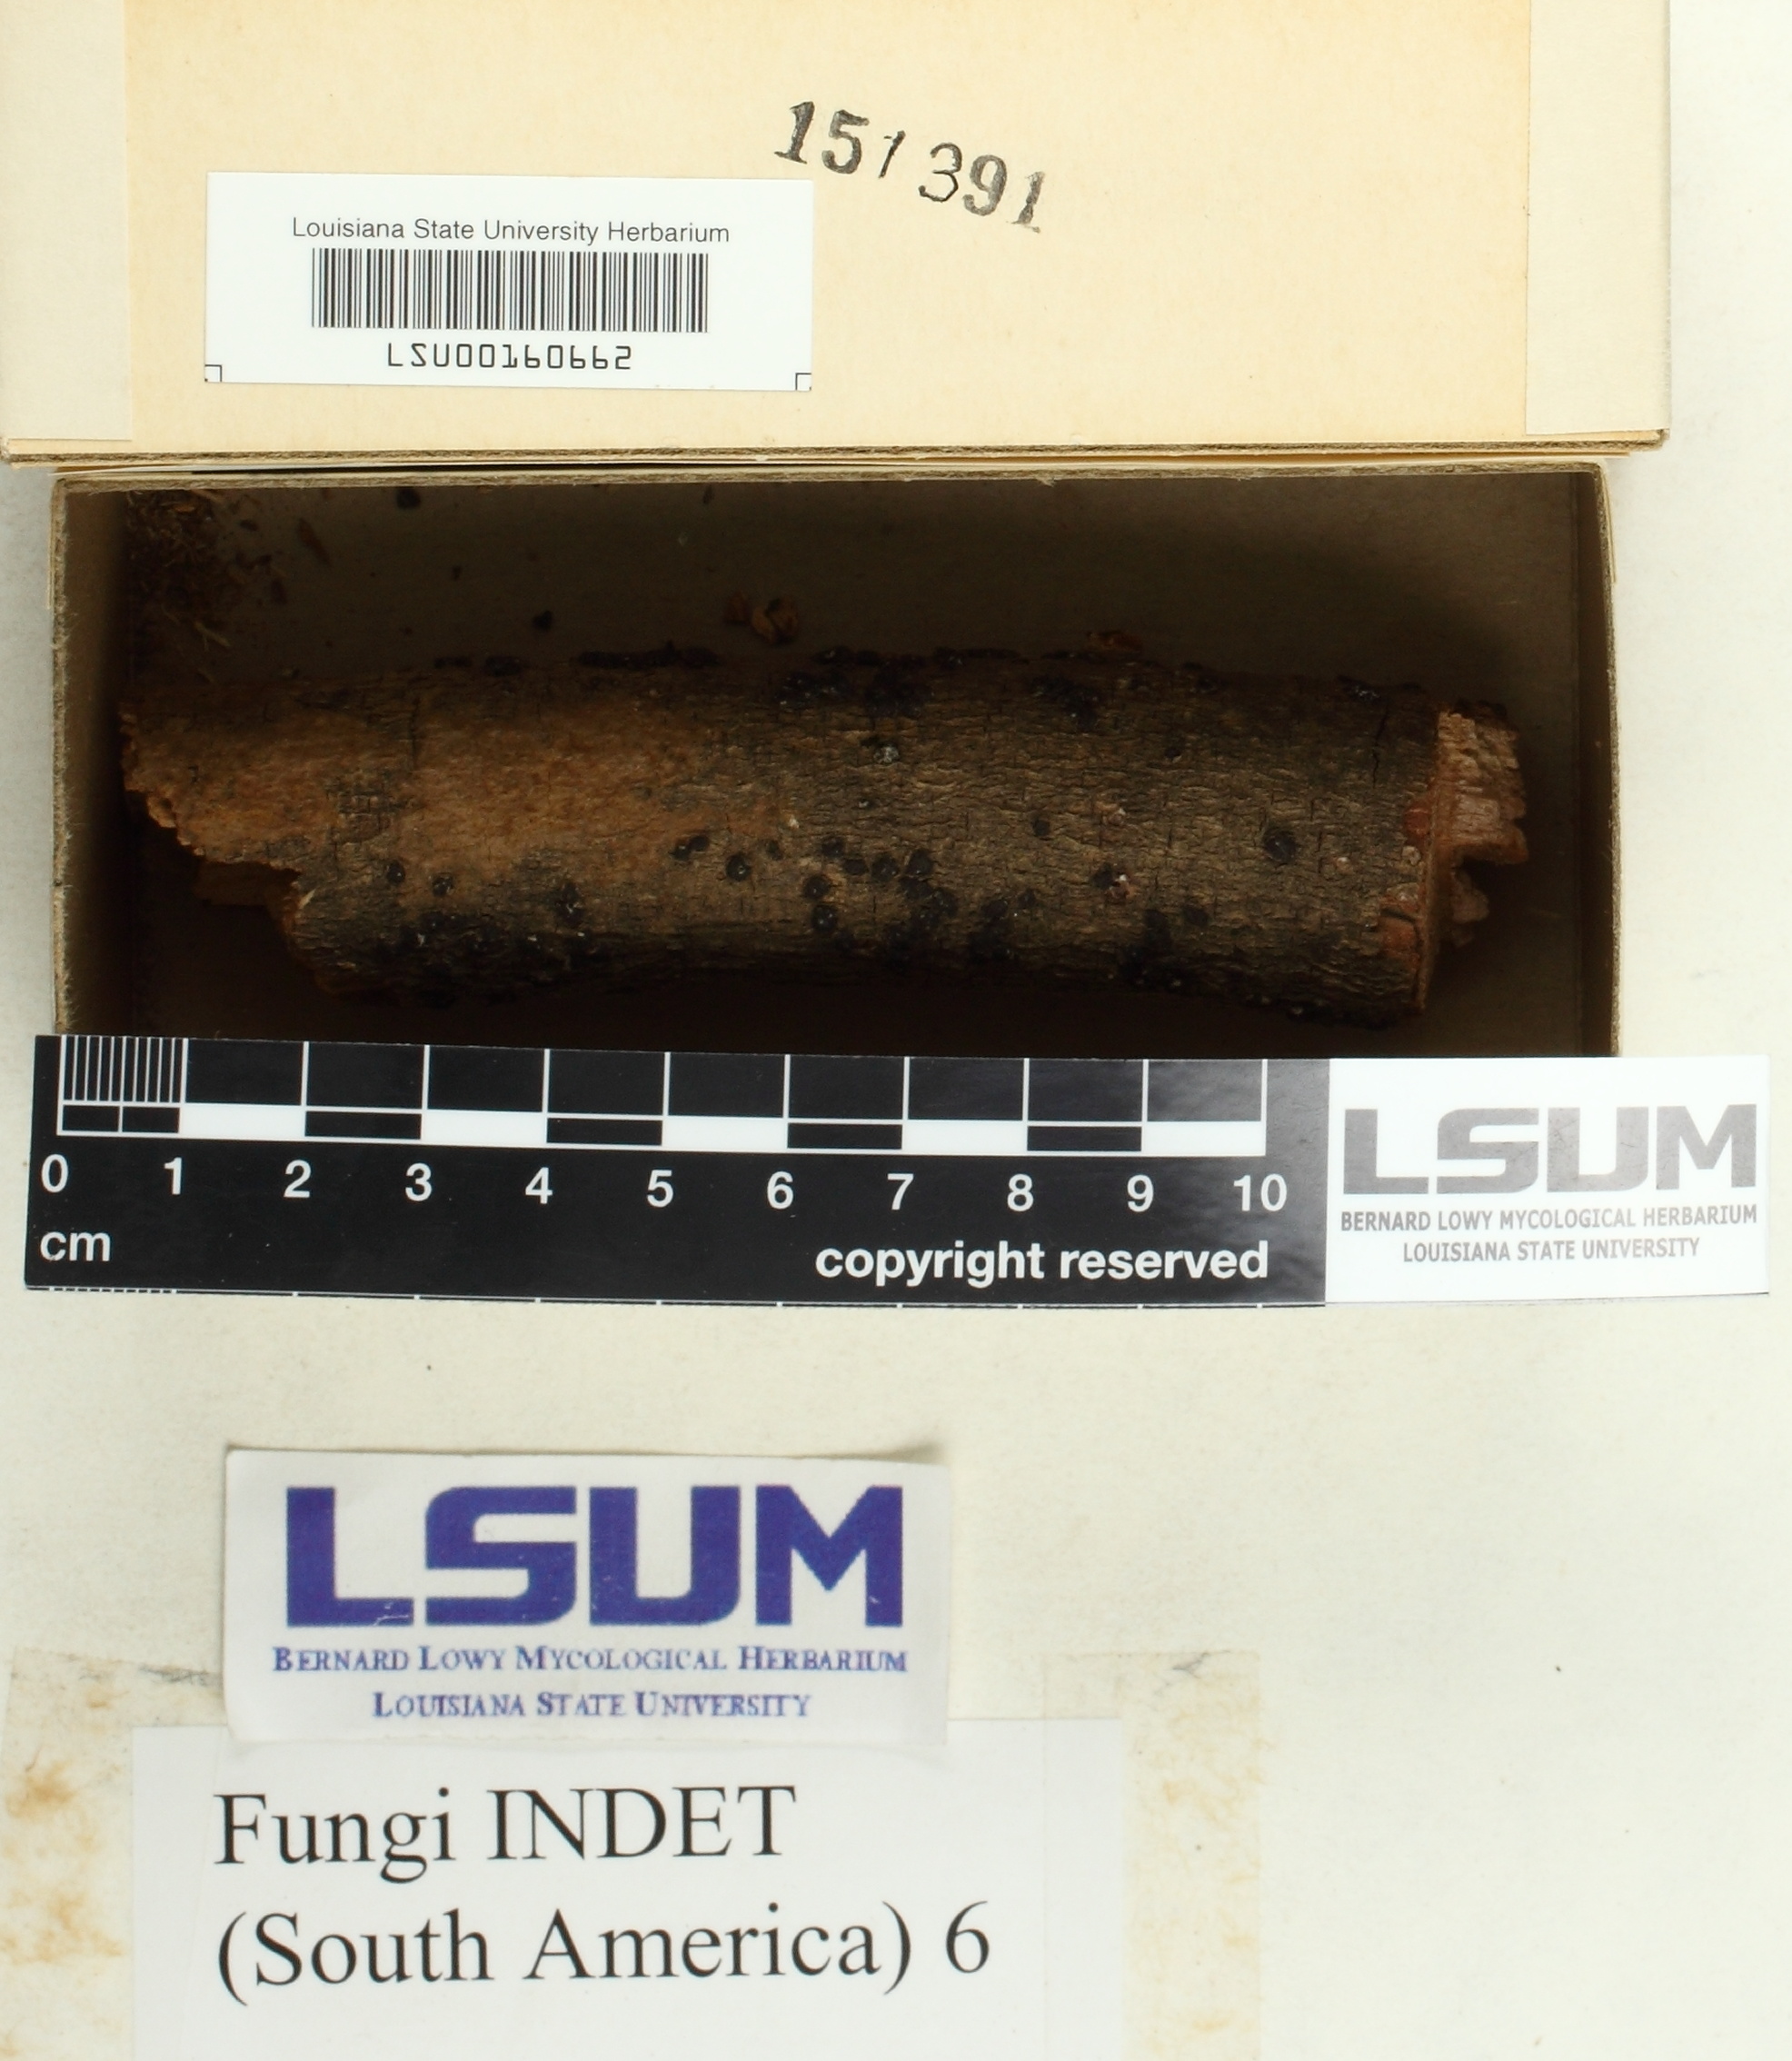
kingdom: Fungi
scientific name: Fungi
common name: Fungi
